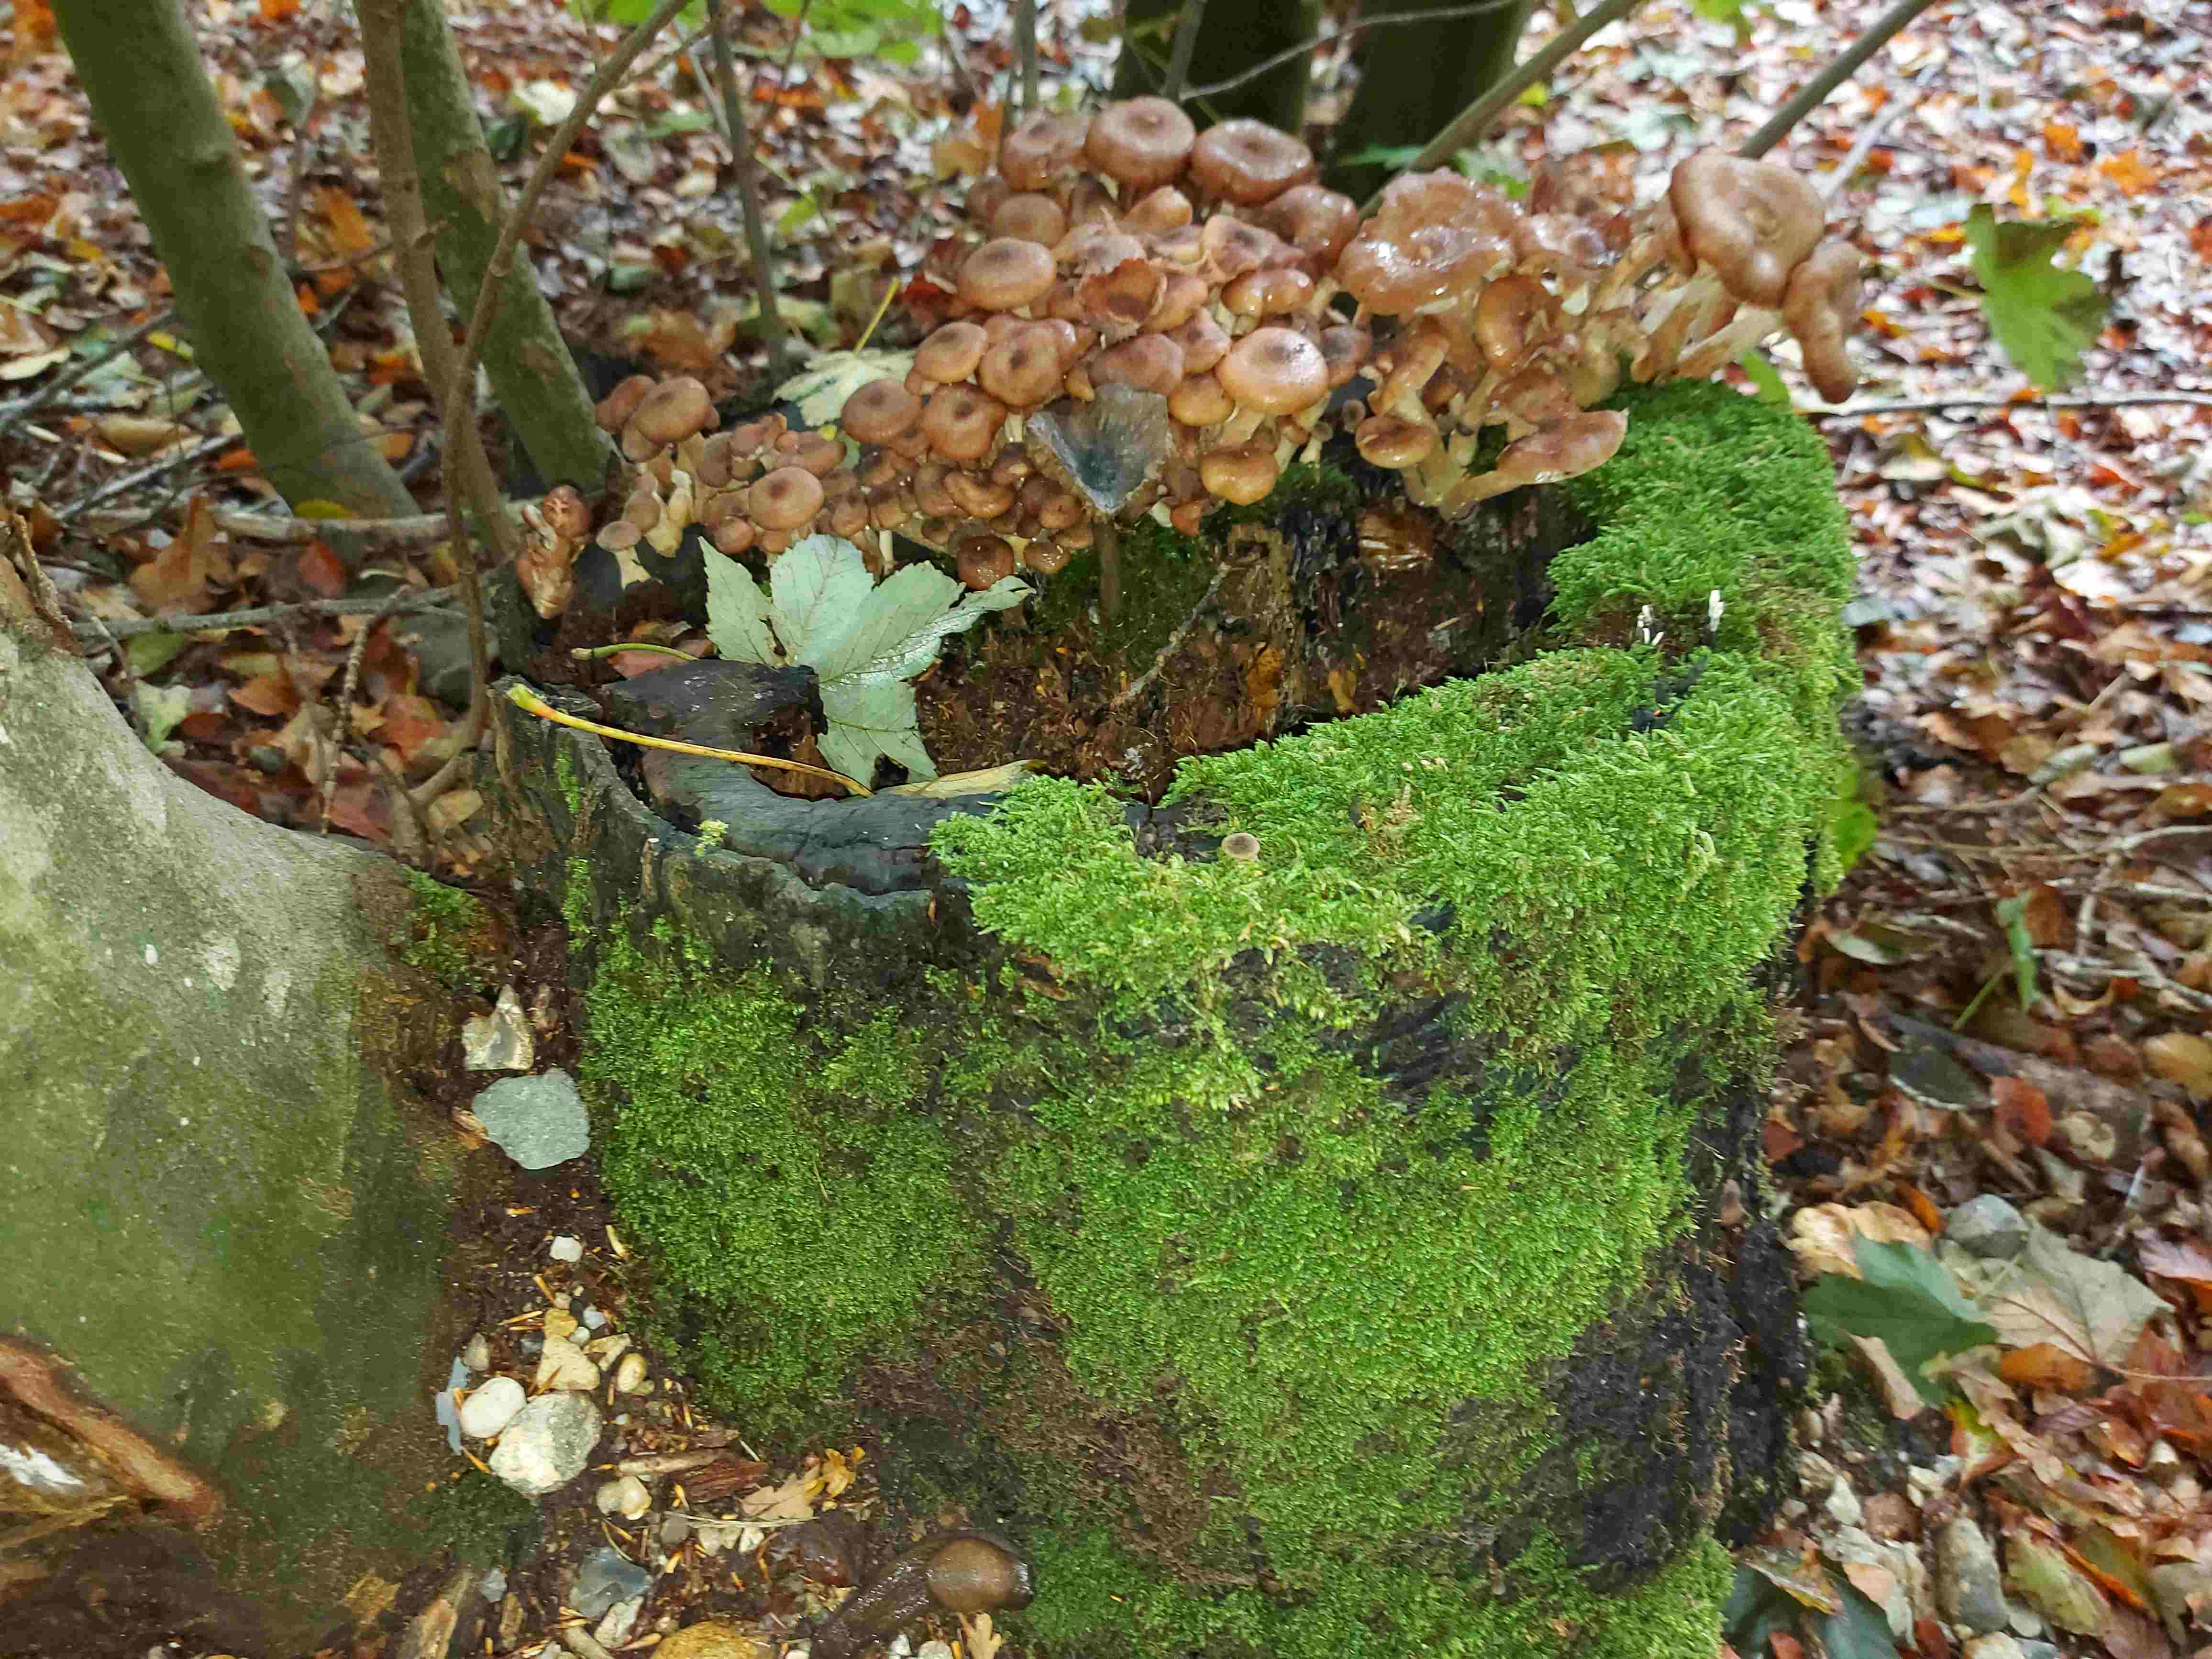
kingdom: Fungi
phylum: Basidiomycota
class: Agaricomycetes
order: Agaricales
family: Physalacriaceae
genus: Armillaria
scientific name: Armillaria
